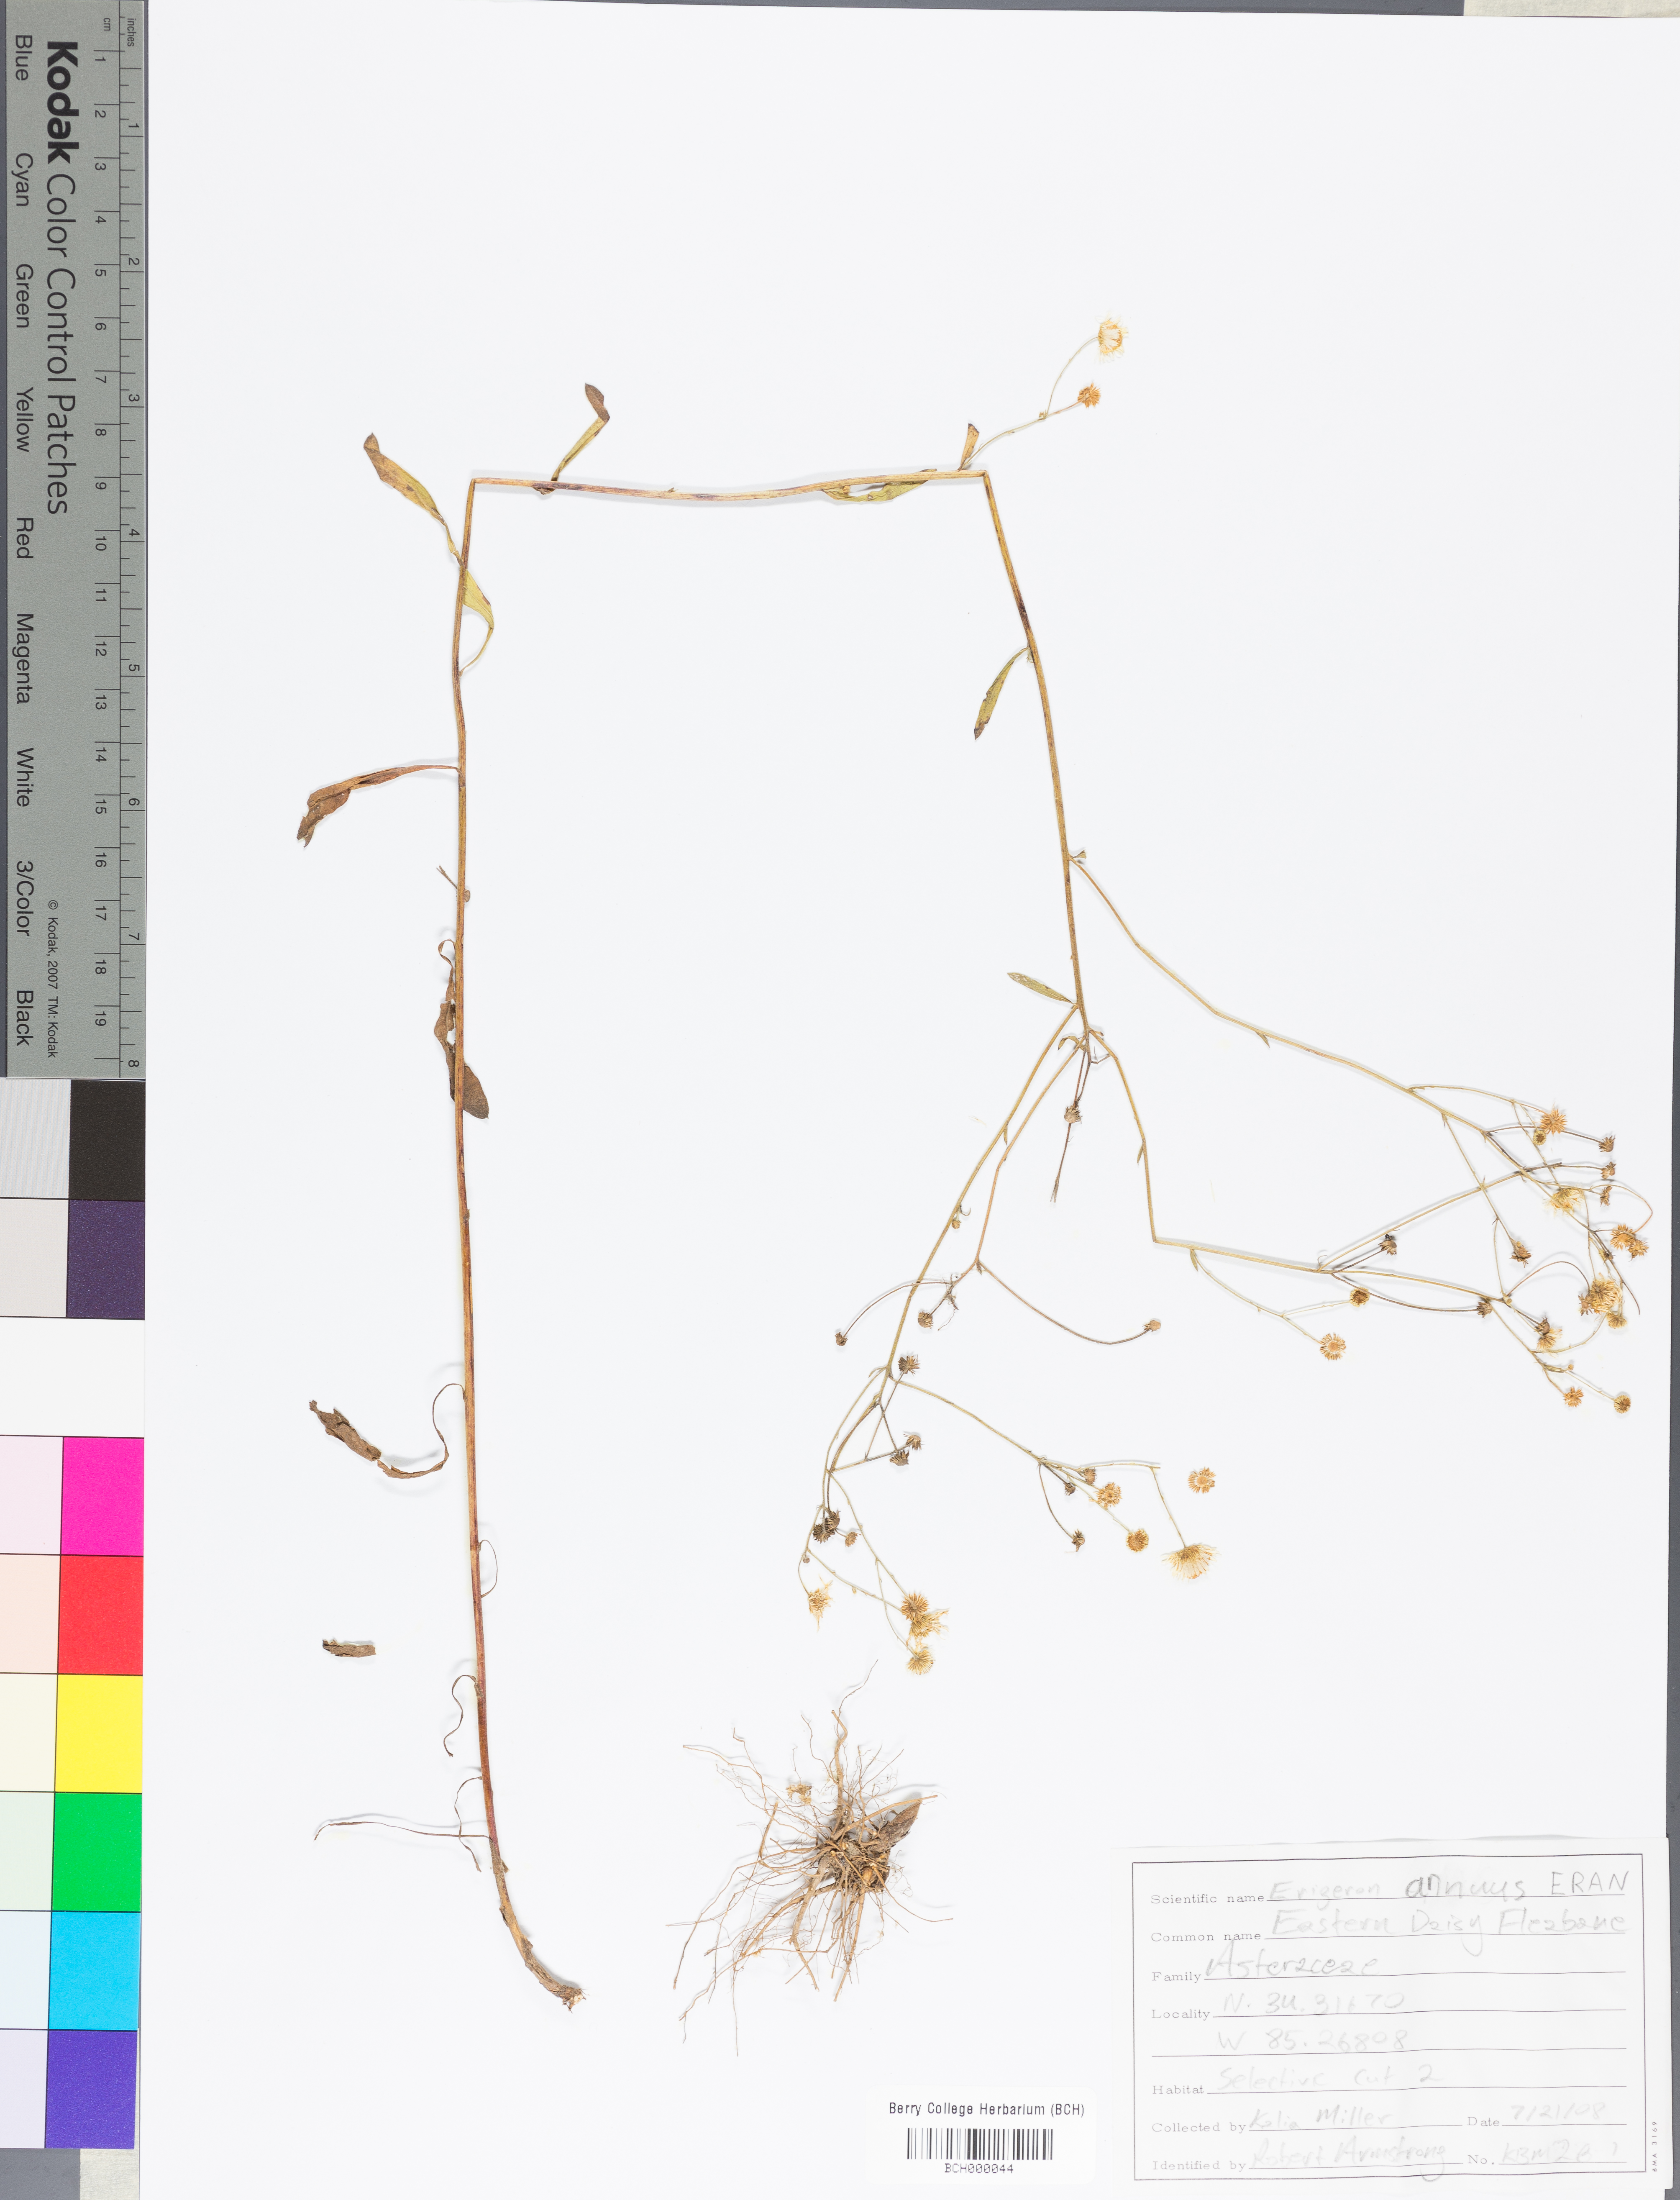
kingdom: Plantae
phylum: Tracheophyta
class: Magnoliopsida
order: Asterales
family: Asteraceae
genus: Erigeron
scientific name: Erigeron annuus
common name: Tall fleabane
